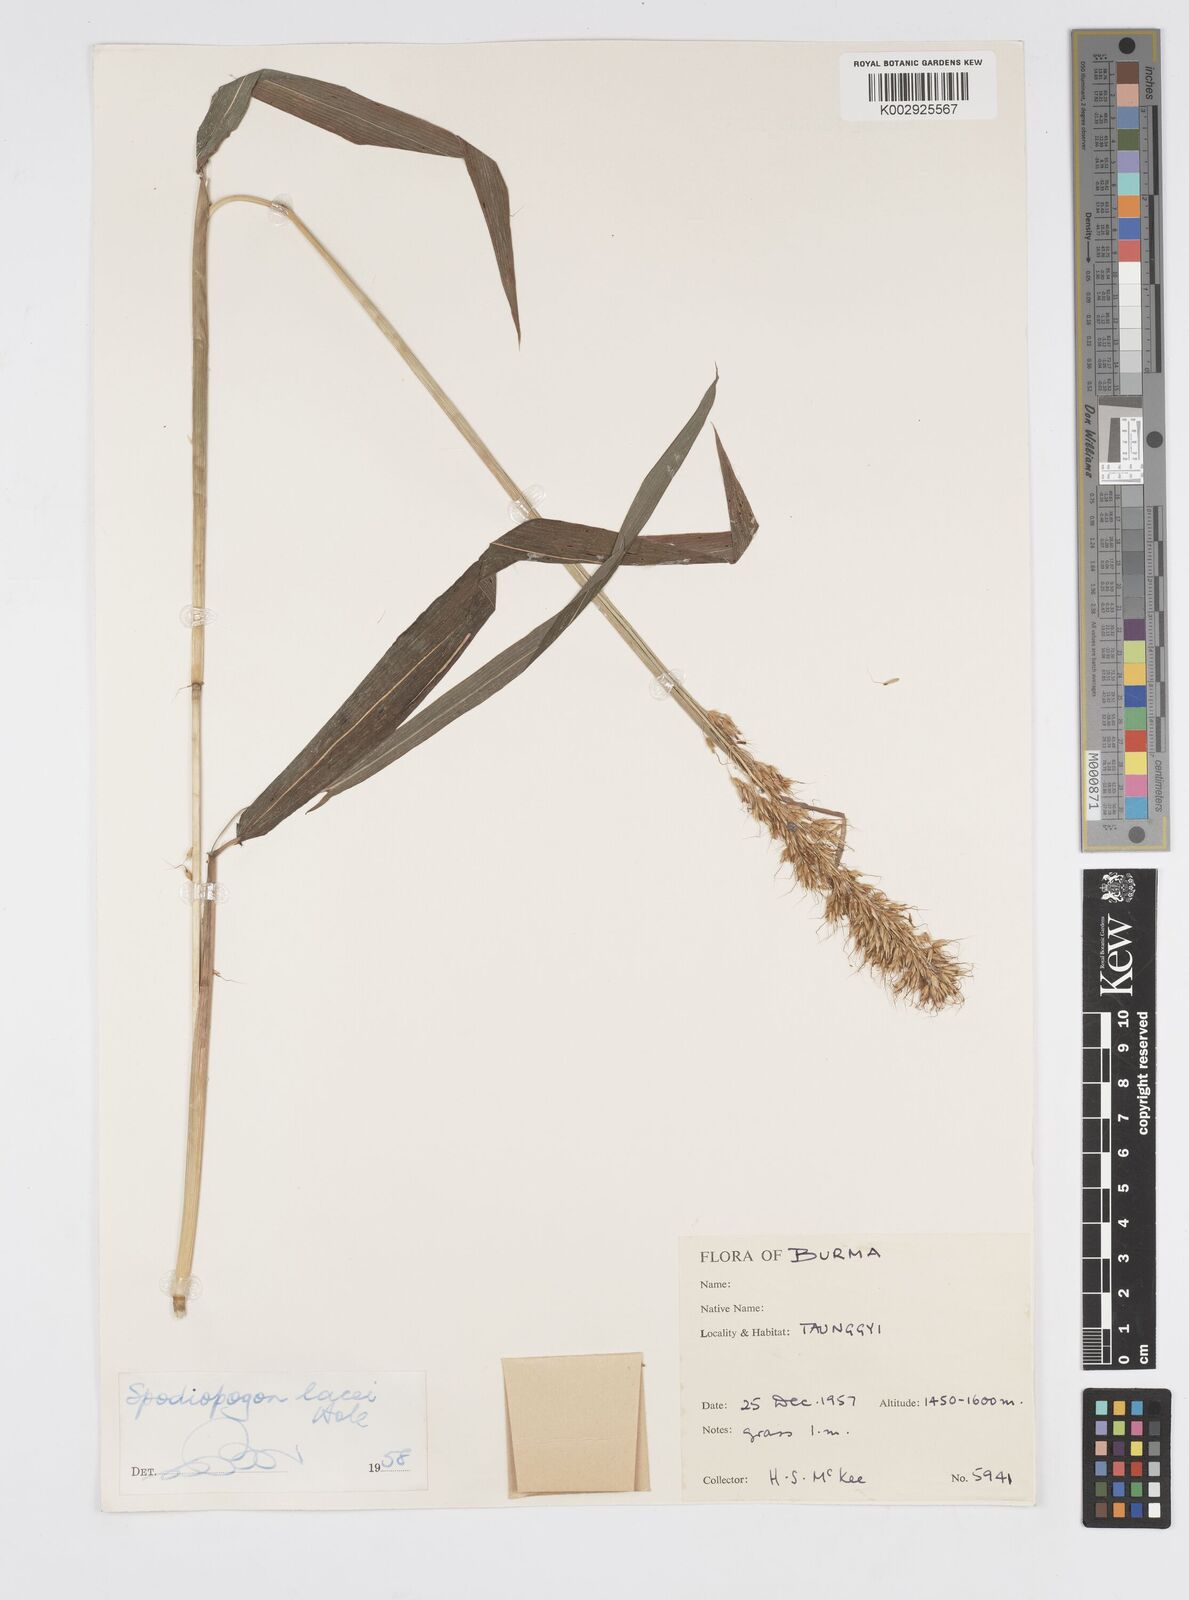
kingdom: Plantae
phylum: Tracheophyta
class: Liliopsida
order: Poales
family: Poaceae
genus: Spodiopogon
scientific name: Spodiopogon lacei
